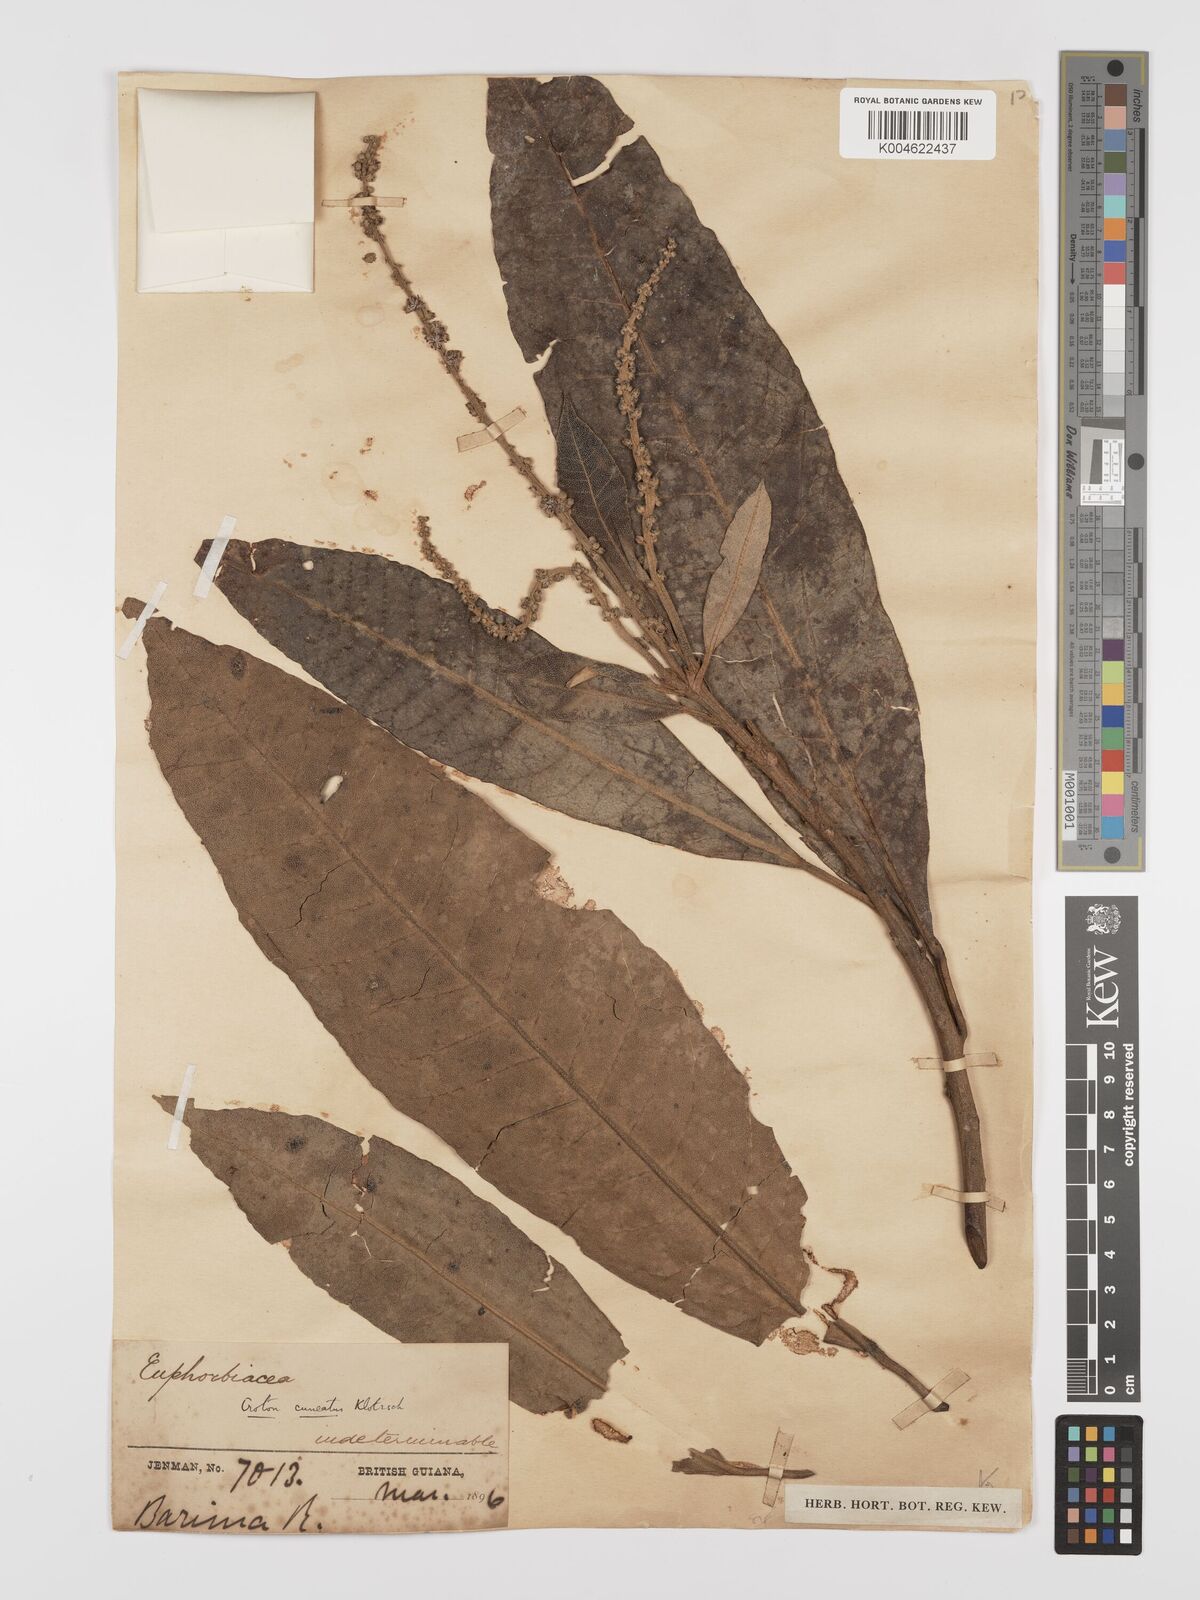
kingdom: Plantae
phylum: Tracheophyta
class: Magnoliopsida
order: Malpighiales
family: Euphorbiaceae
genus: Croton
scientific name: Croton
